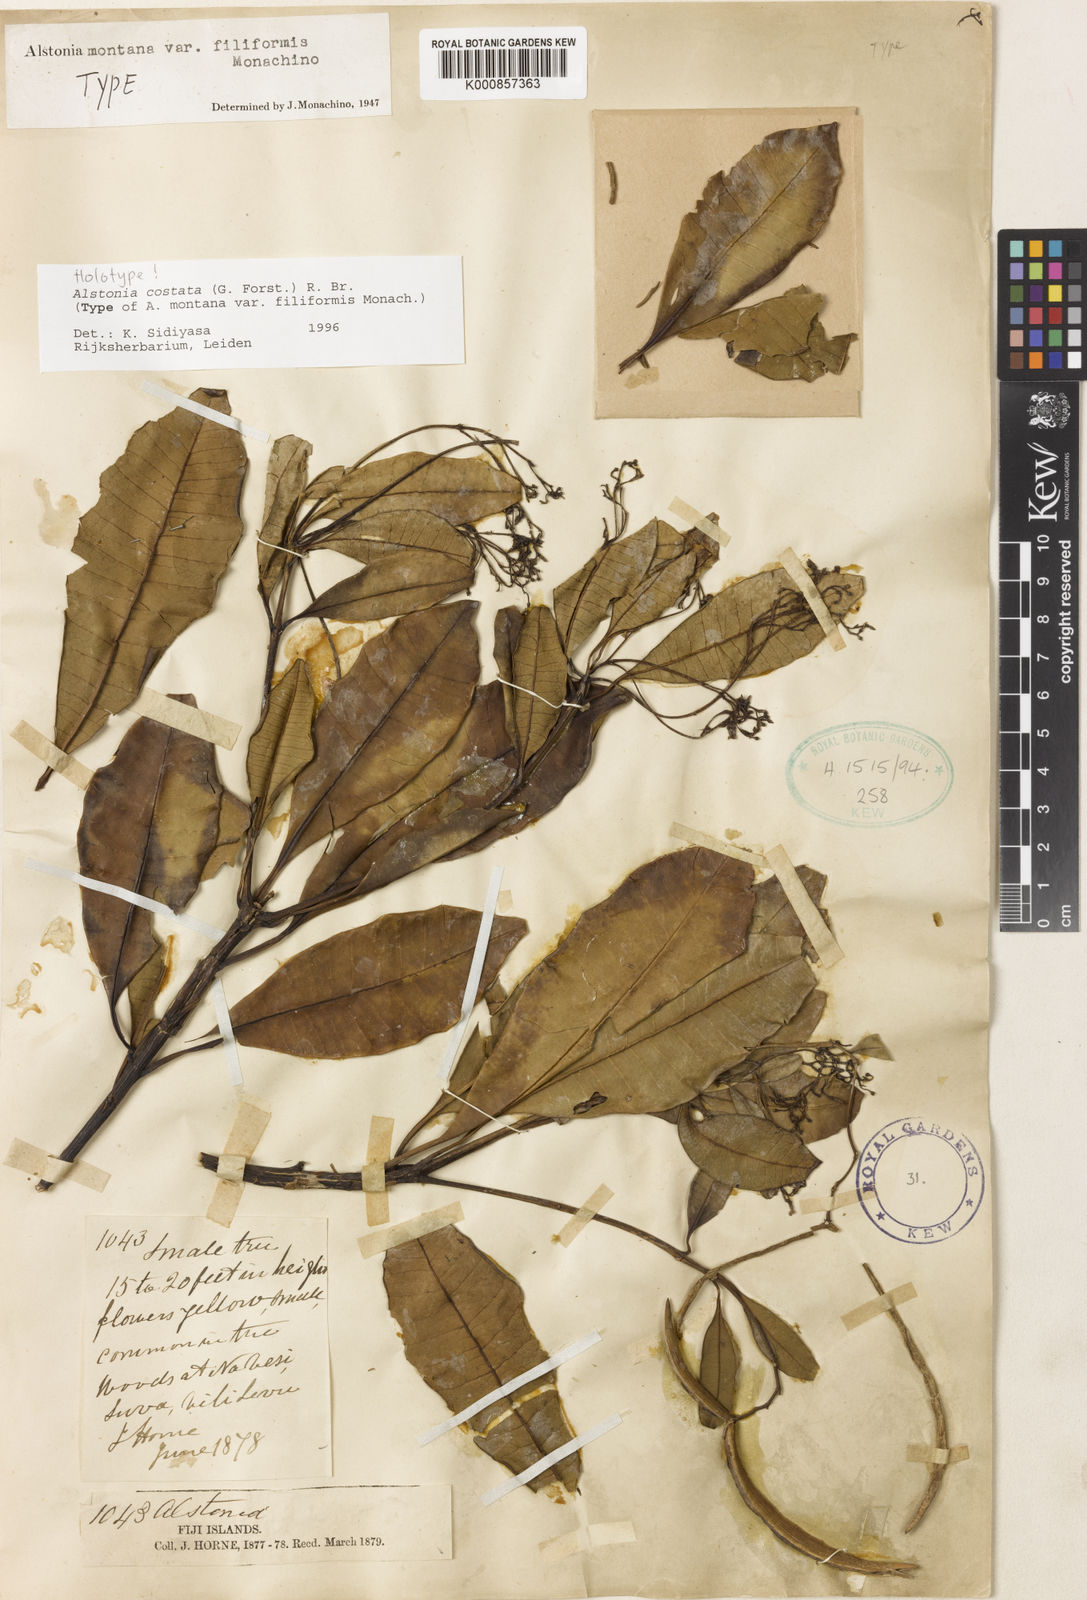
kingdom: Plantae
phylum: Tracheophyta
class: Magnoliopsida
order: Gentianales
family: Apocynaceae
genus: Alstonia
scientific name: Alstonia costata
